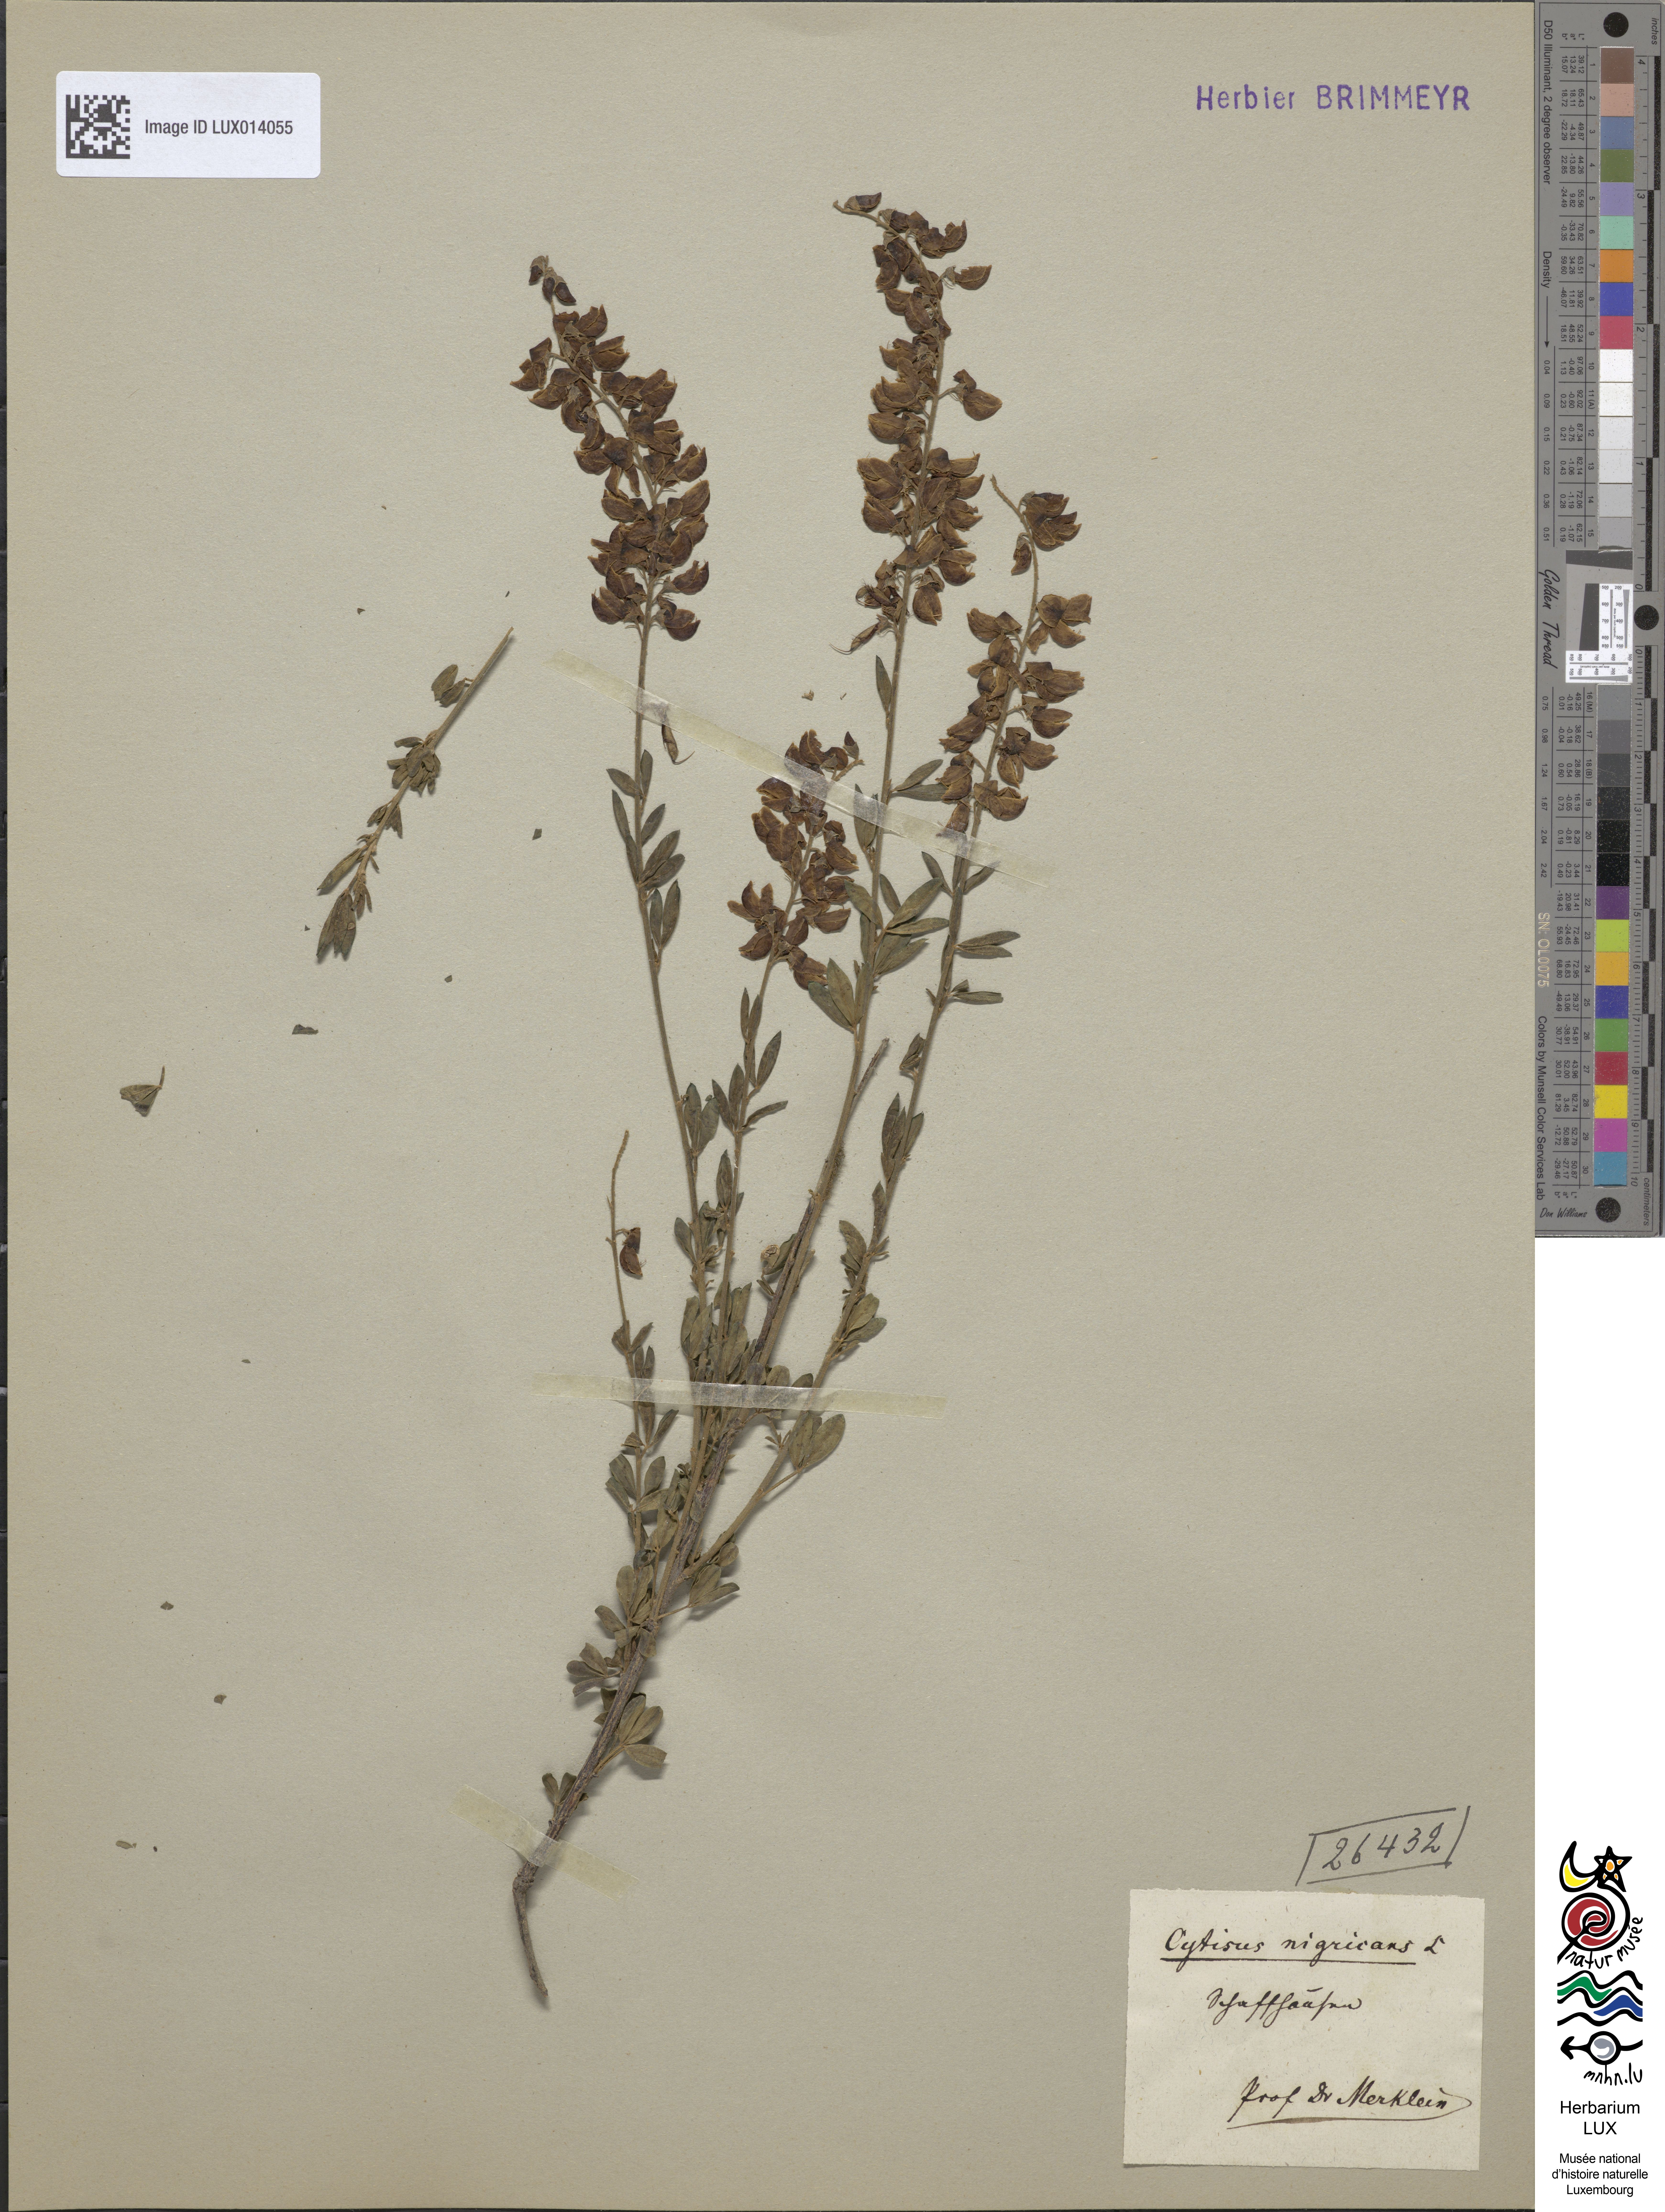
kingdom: Plantae
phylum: Tracheophyta
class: Magnoliopsida
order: Fabales
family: Fabaceae
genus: Cytisus
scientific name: Cytisus nigricans
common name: Black broom
